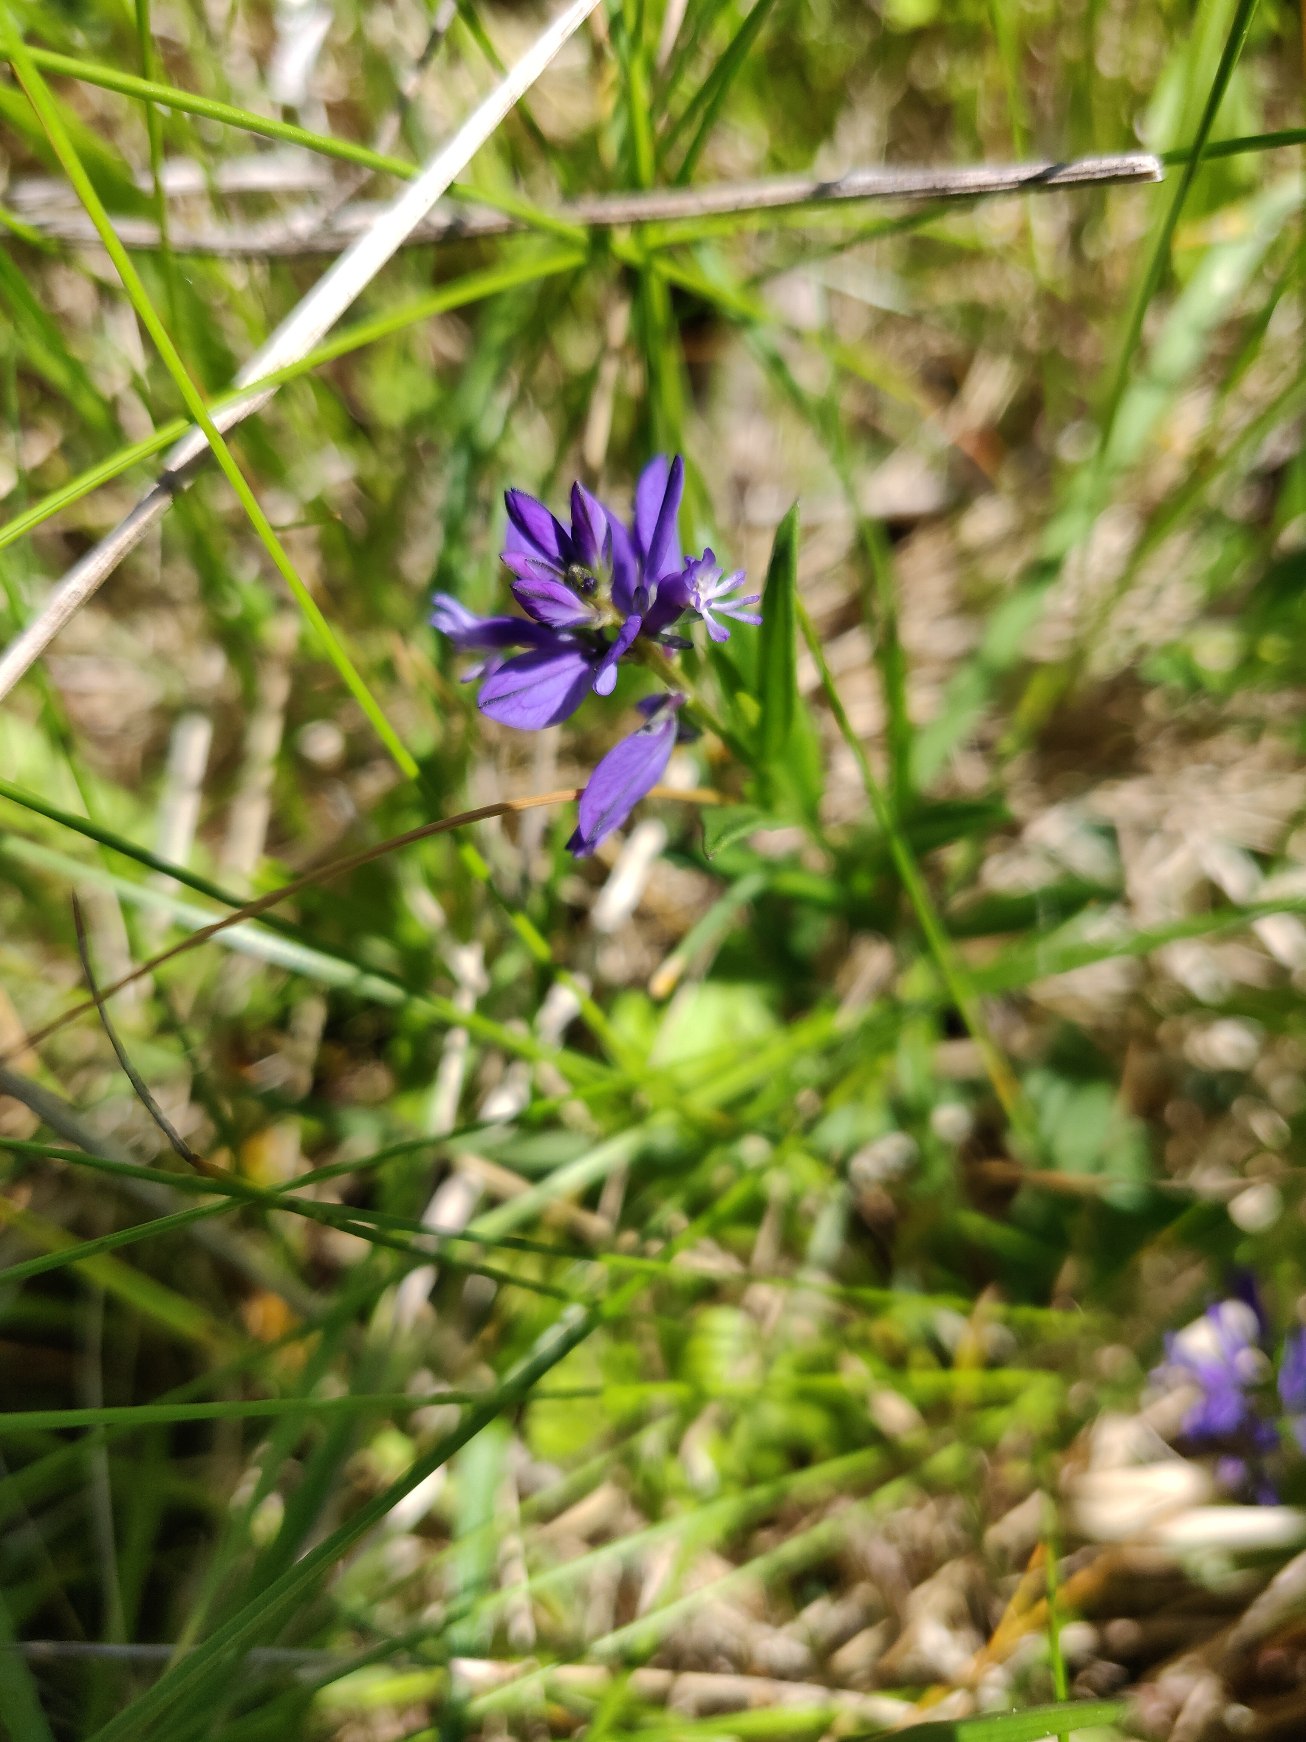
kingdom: Plantae
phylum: Tracheophyta
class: Magnoliopsida
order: Fabales
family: Polygalaceae
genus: Polygala
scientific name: Polygala vulgaris
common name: Almindelig mælkeurt
